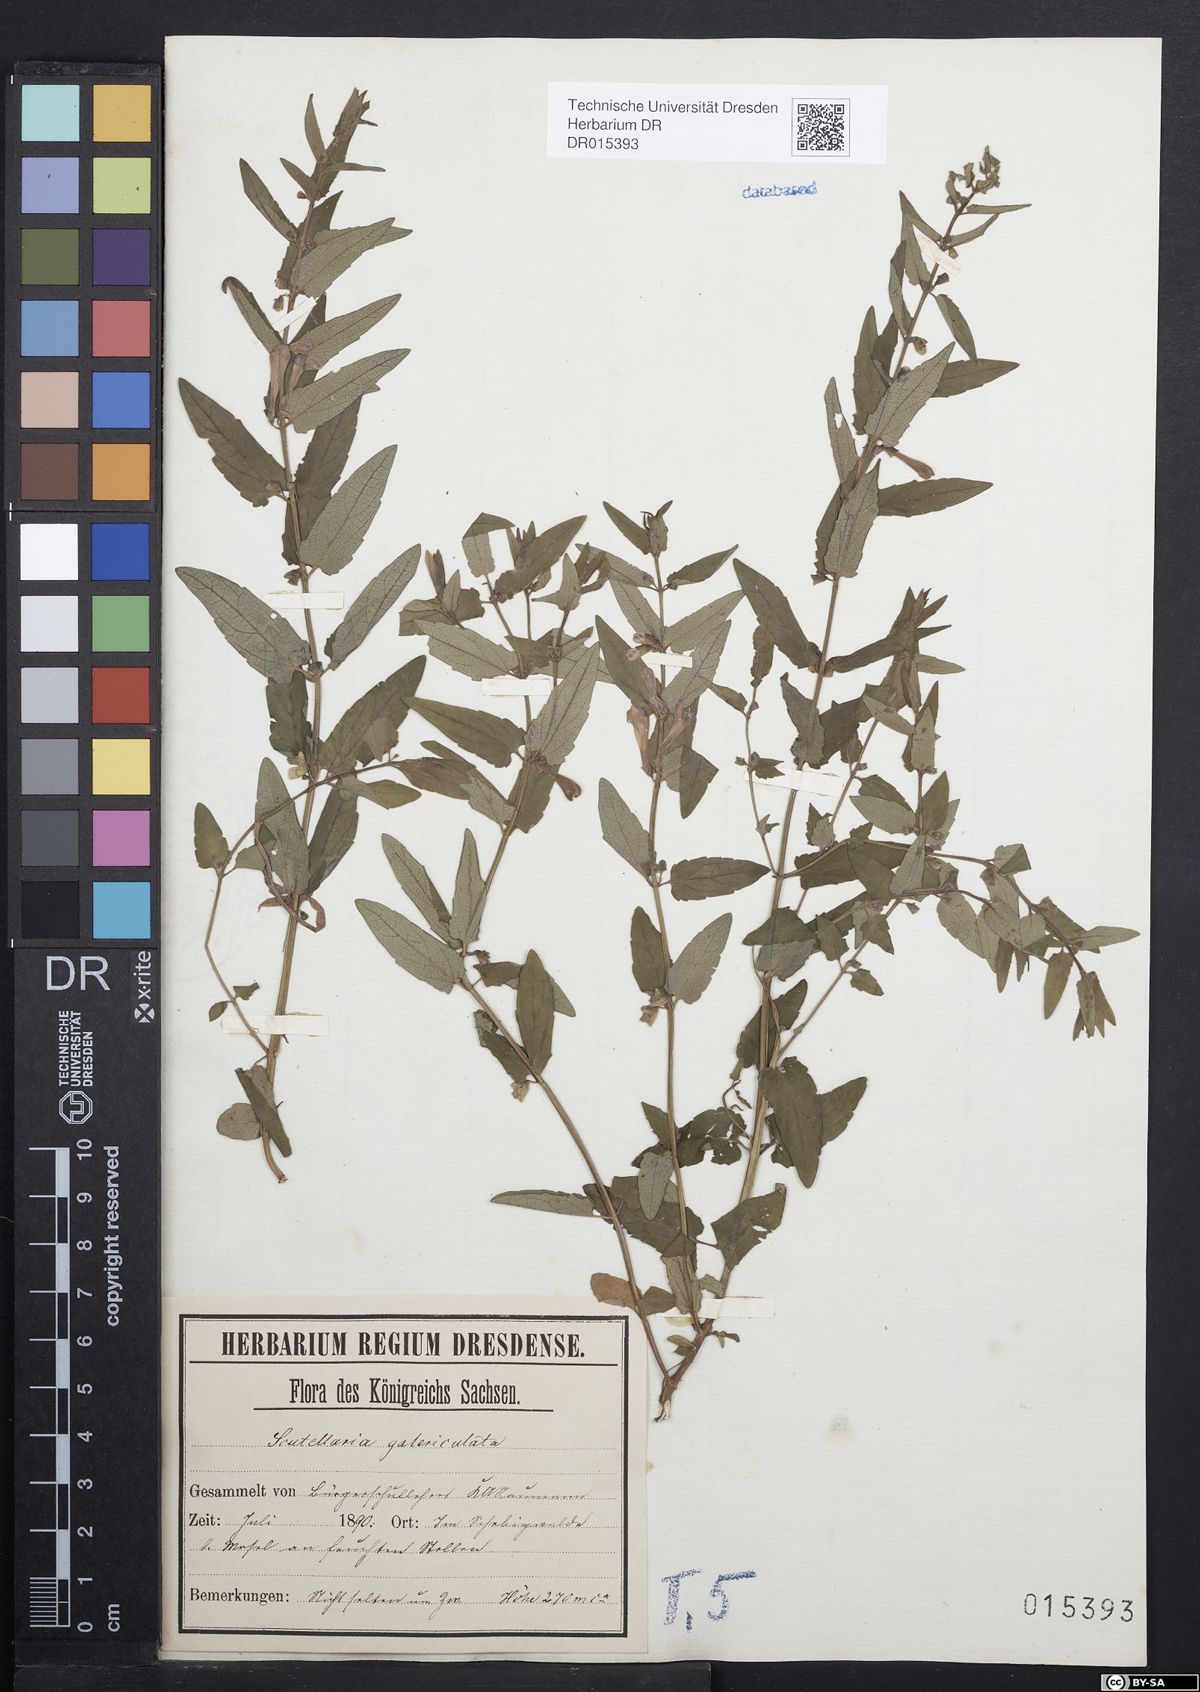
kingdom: Plantae
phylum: Tracheophyta
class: Magnoliopsida
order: Lamiales
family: Lamiaceae
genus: Scutellaria
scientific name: Scutellaria galericulata
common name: Skullcap
